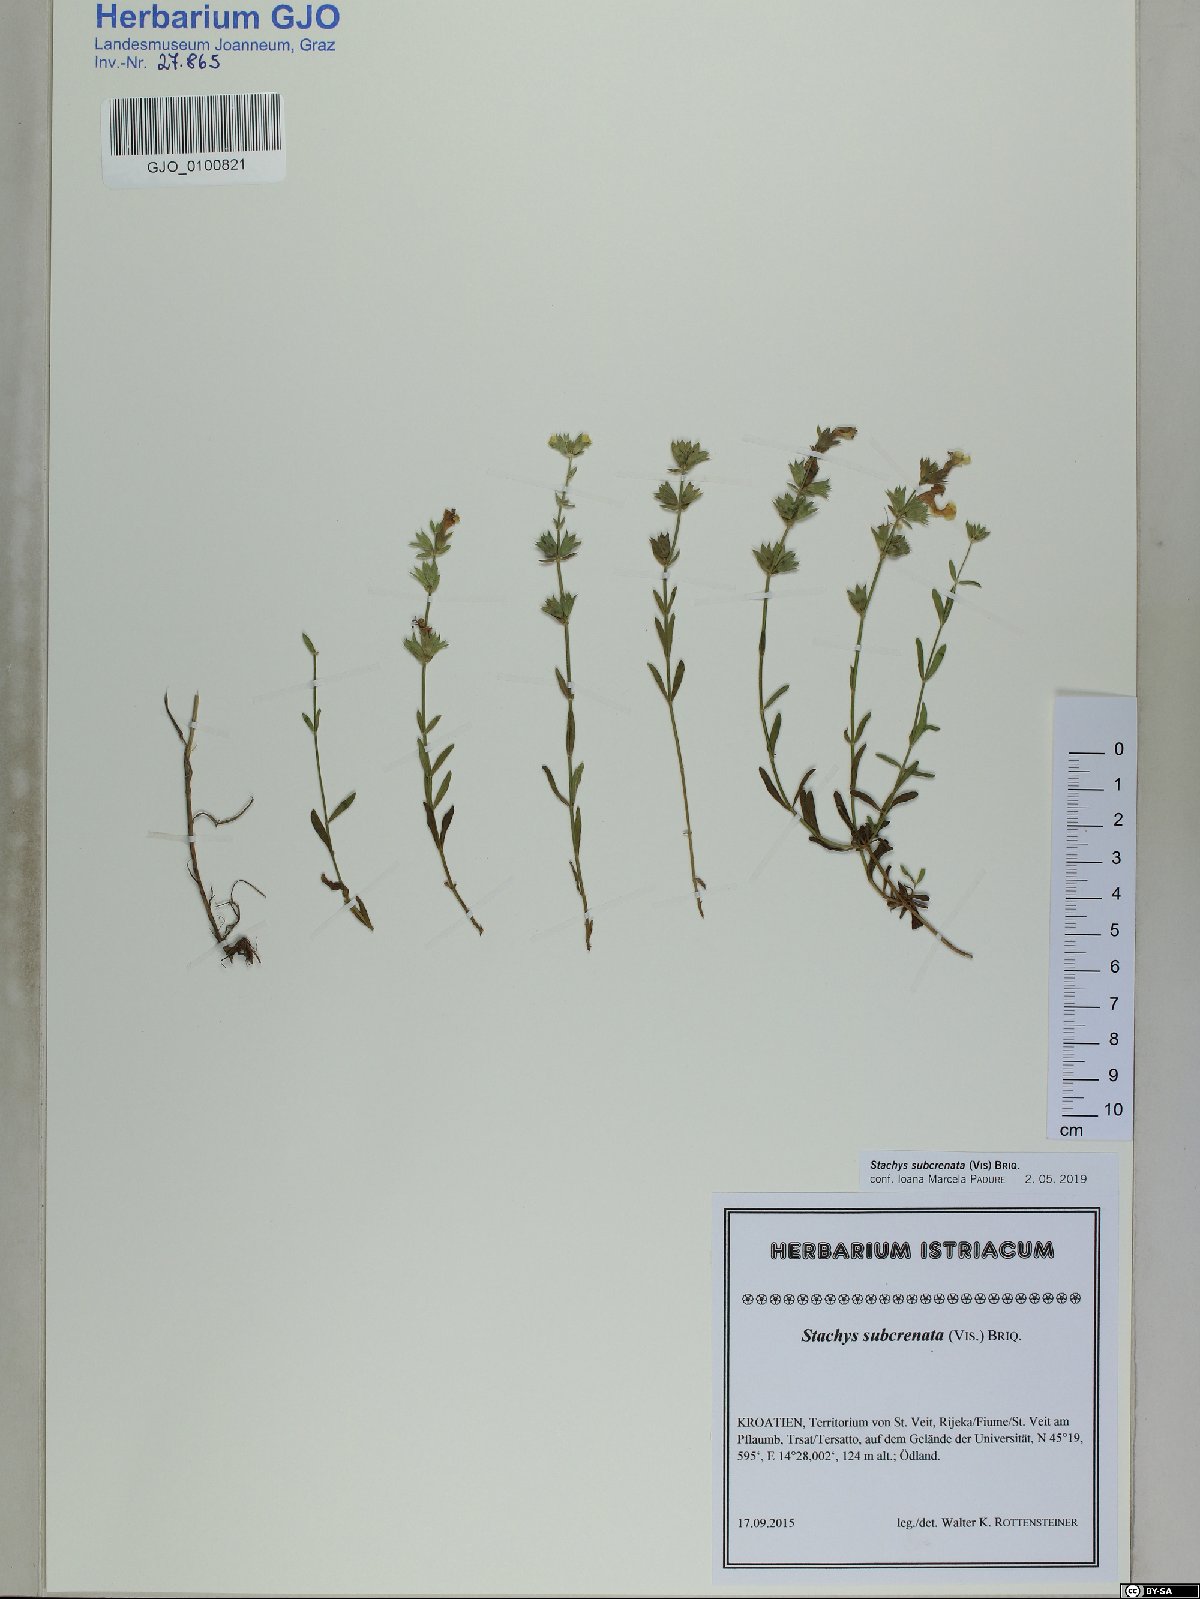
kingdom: Plantae
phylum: Tracheophyta
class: Magnoliopsida
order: Lamiales
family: Lamiaceae
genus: Stachys
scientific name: Stachys recta
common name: Perennial yellow-woundwort
